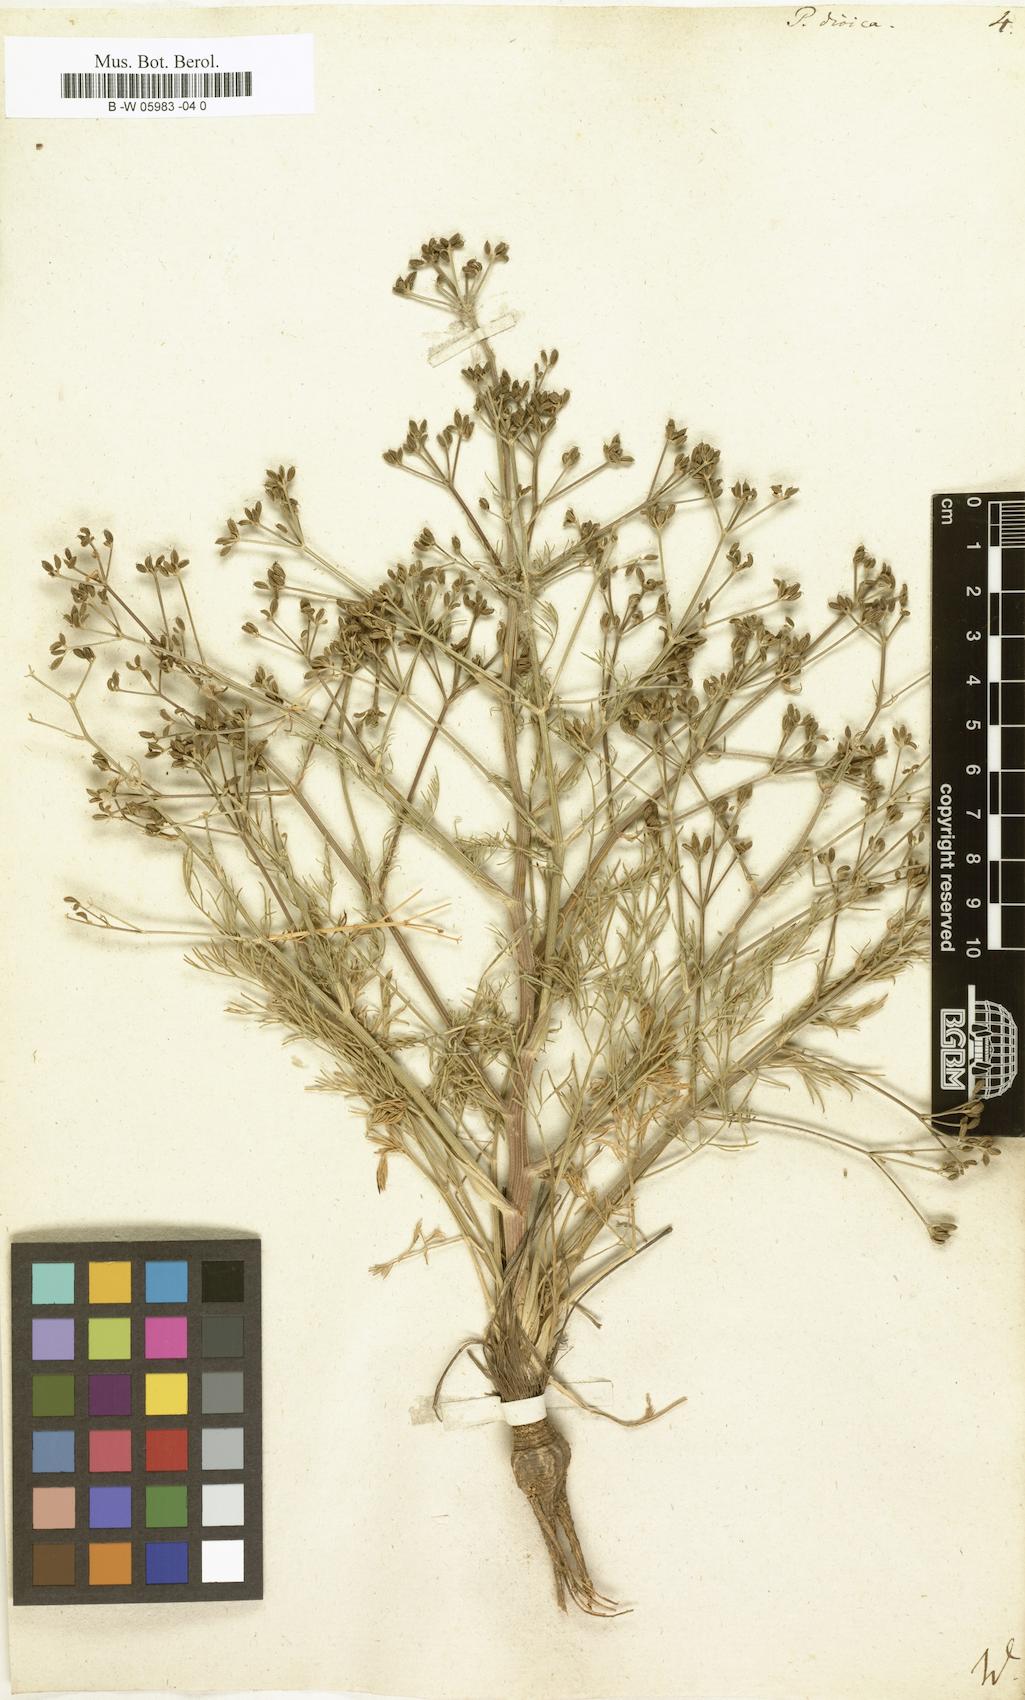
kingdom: Plantae
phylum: Tracheophyta
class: Magnoliopsida
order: Apiales
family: Apiaceae
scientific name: Apiaceae
